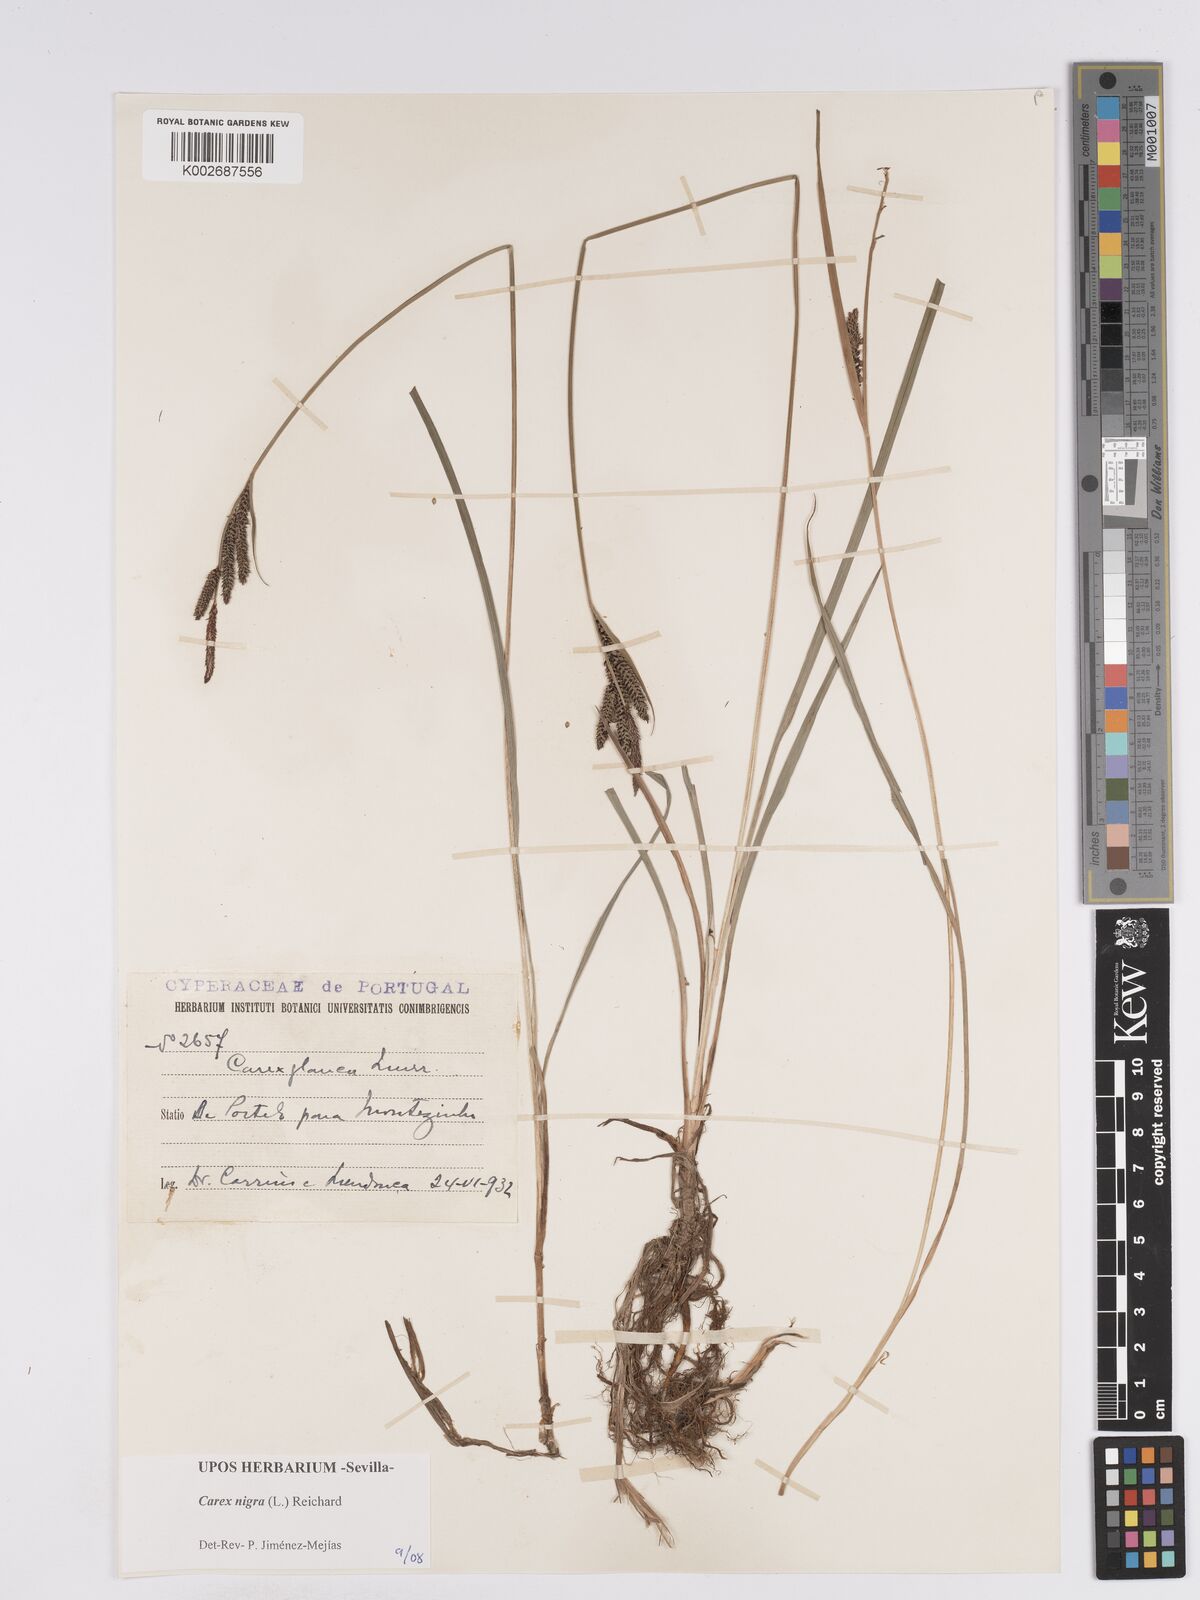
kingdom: Plantae
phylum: Tracheophyta
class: Liliopsida
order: Poales
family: Cyperaceae
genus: Carex
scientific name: Carex nigra
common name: Common sedge
